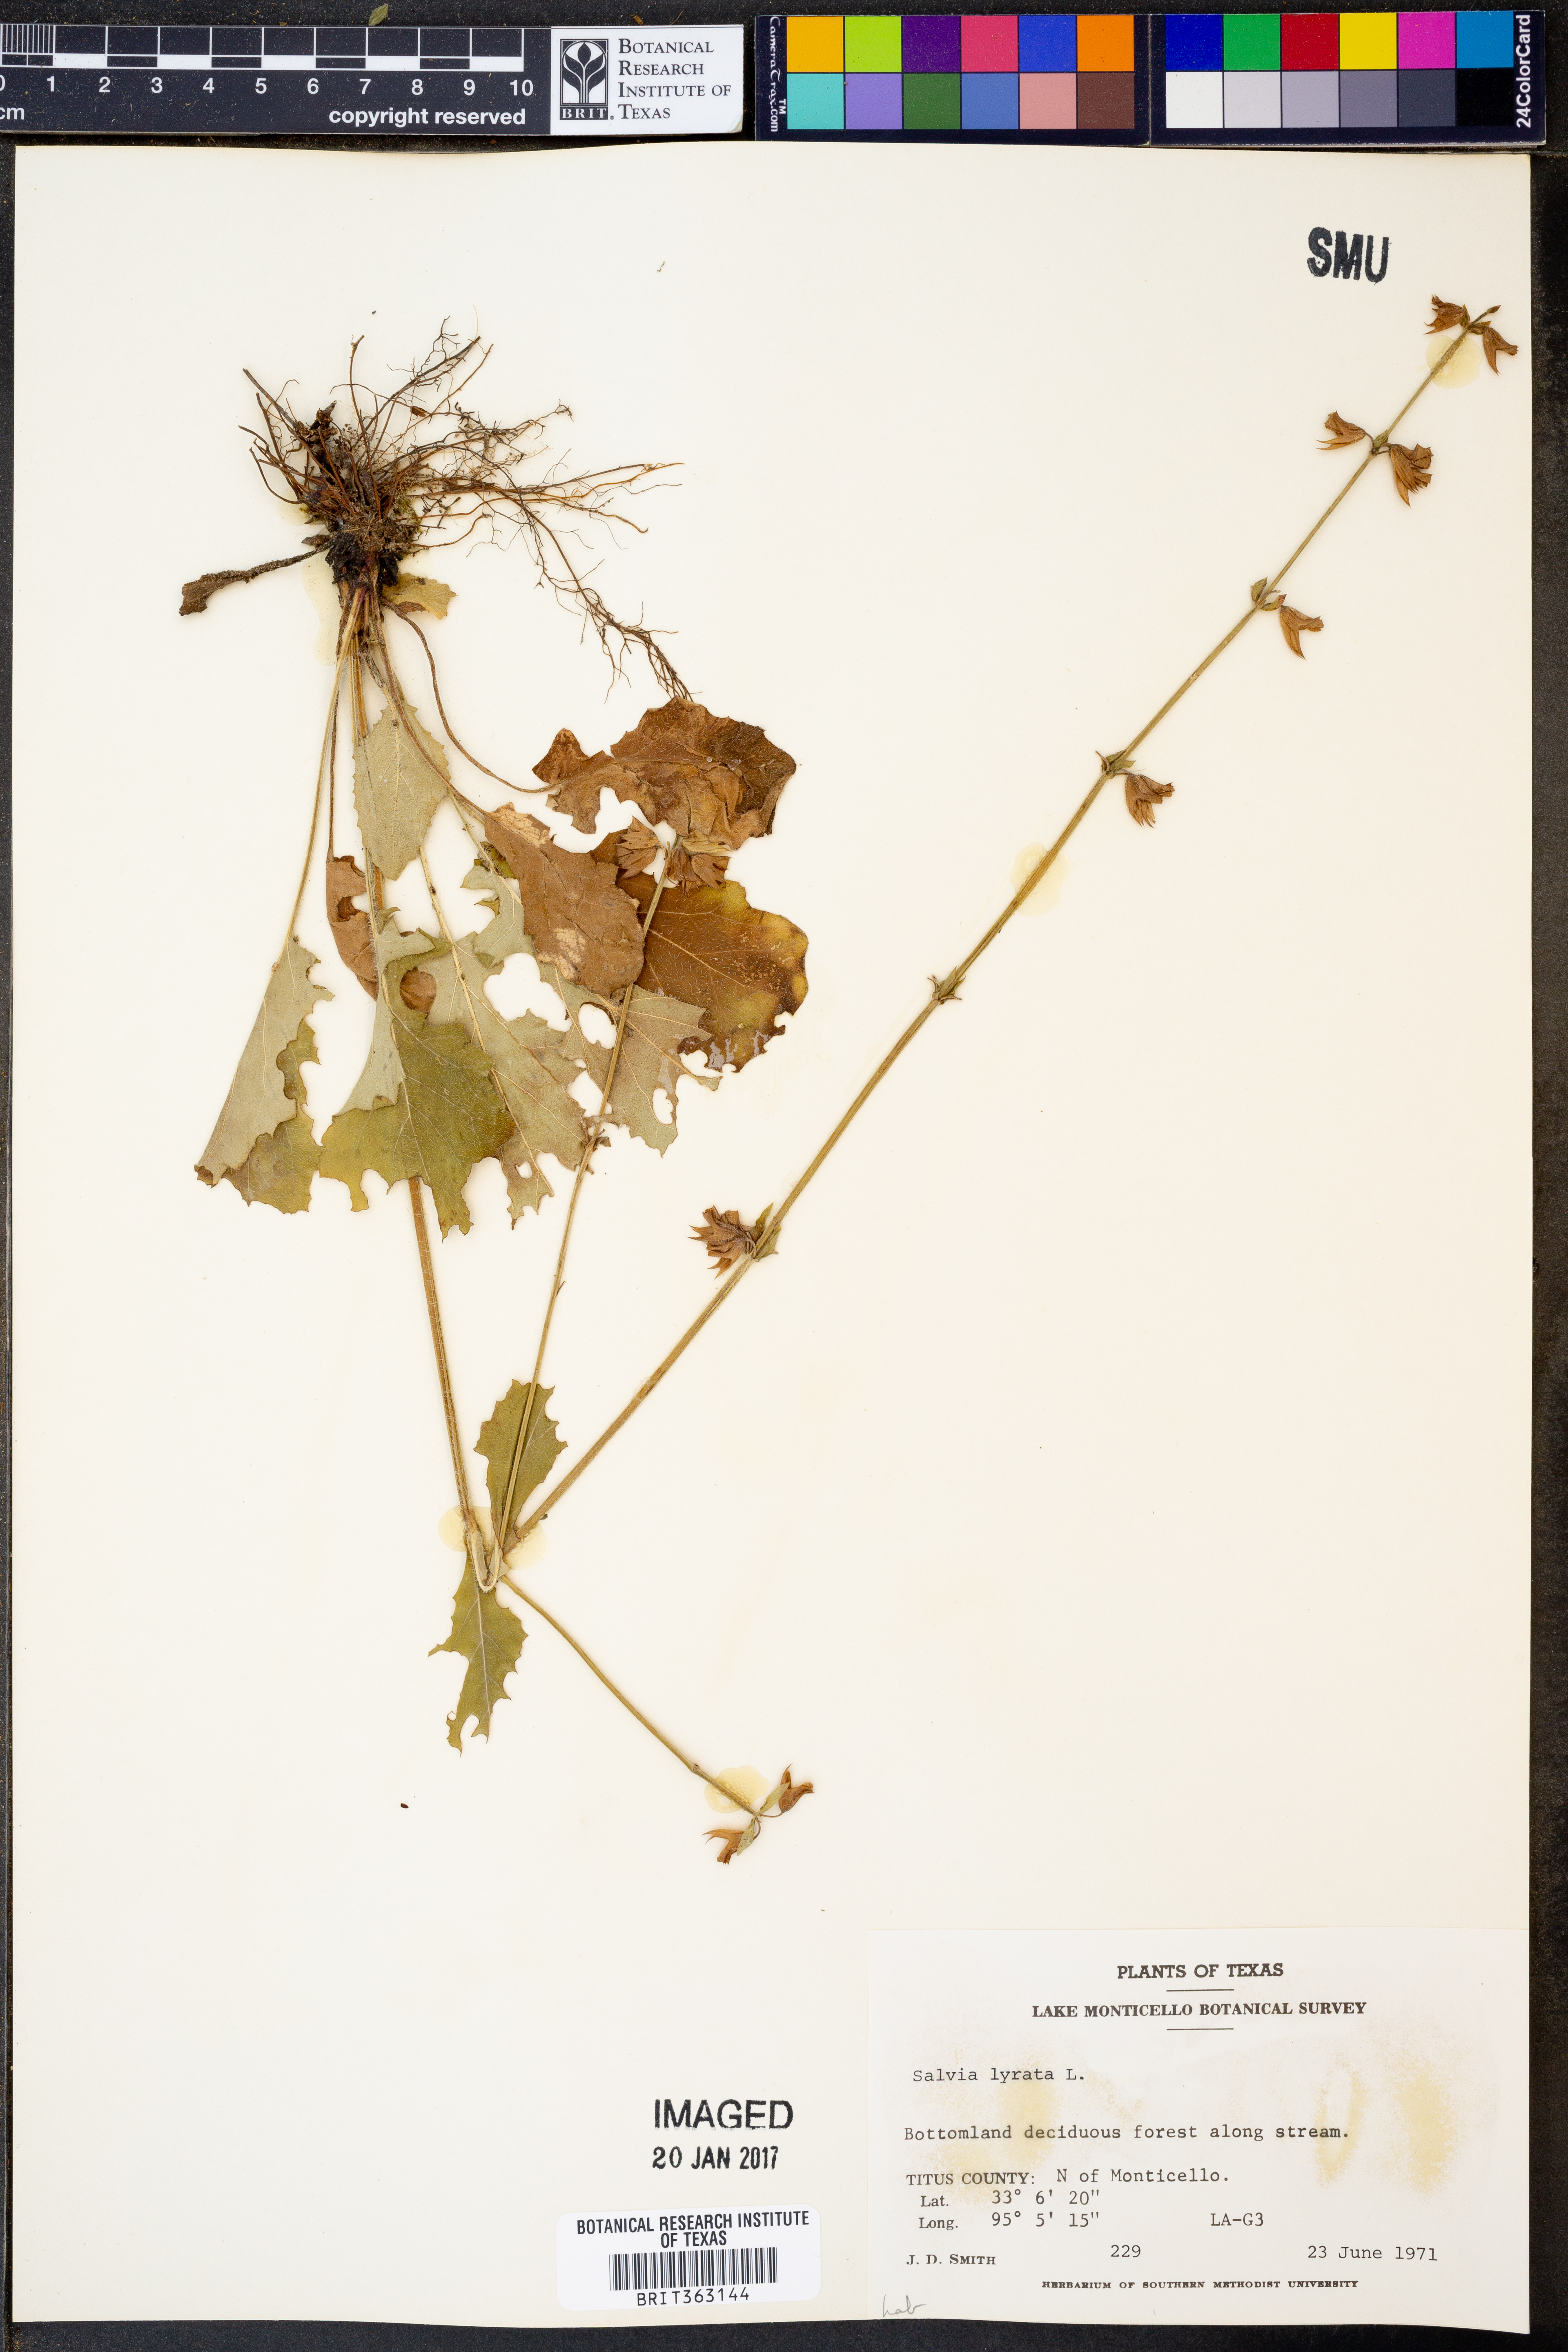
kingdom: Plantae
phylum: Tracheophyta
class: Magnoliopsida
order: Lamiales
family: Lamiaceae
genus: Salvia
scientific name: Salvia lyrata
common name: Cancerweed
